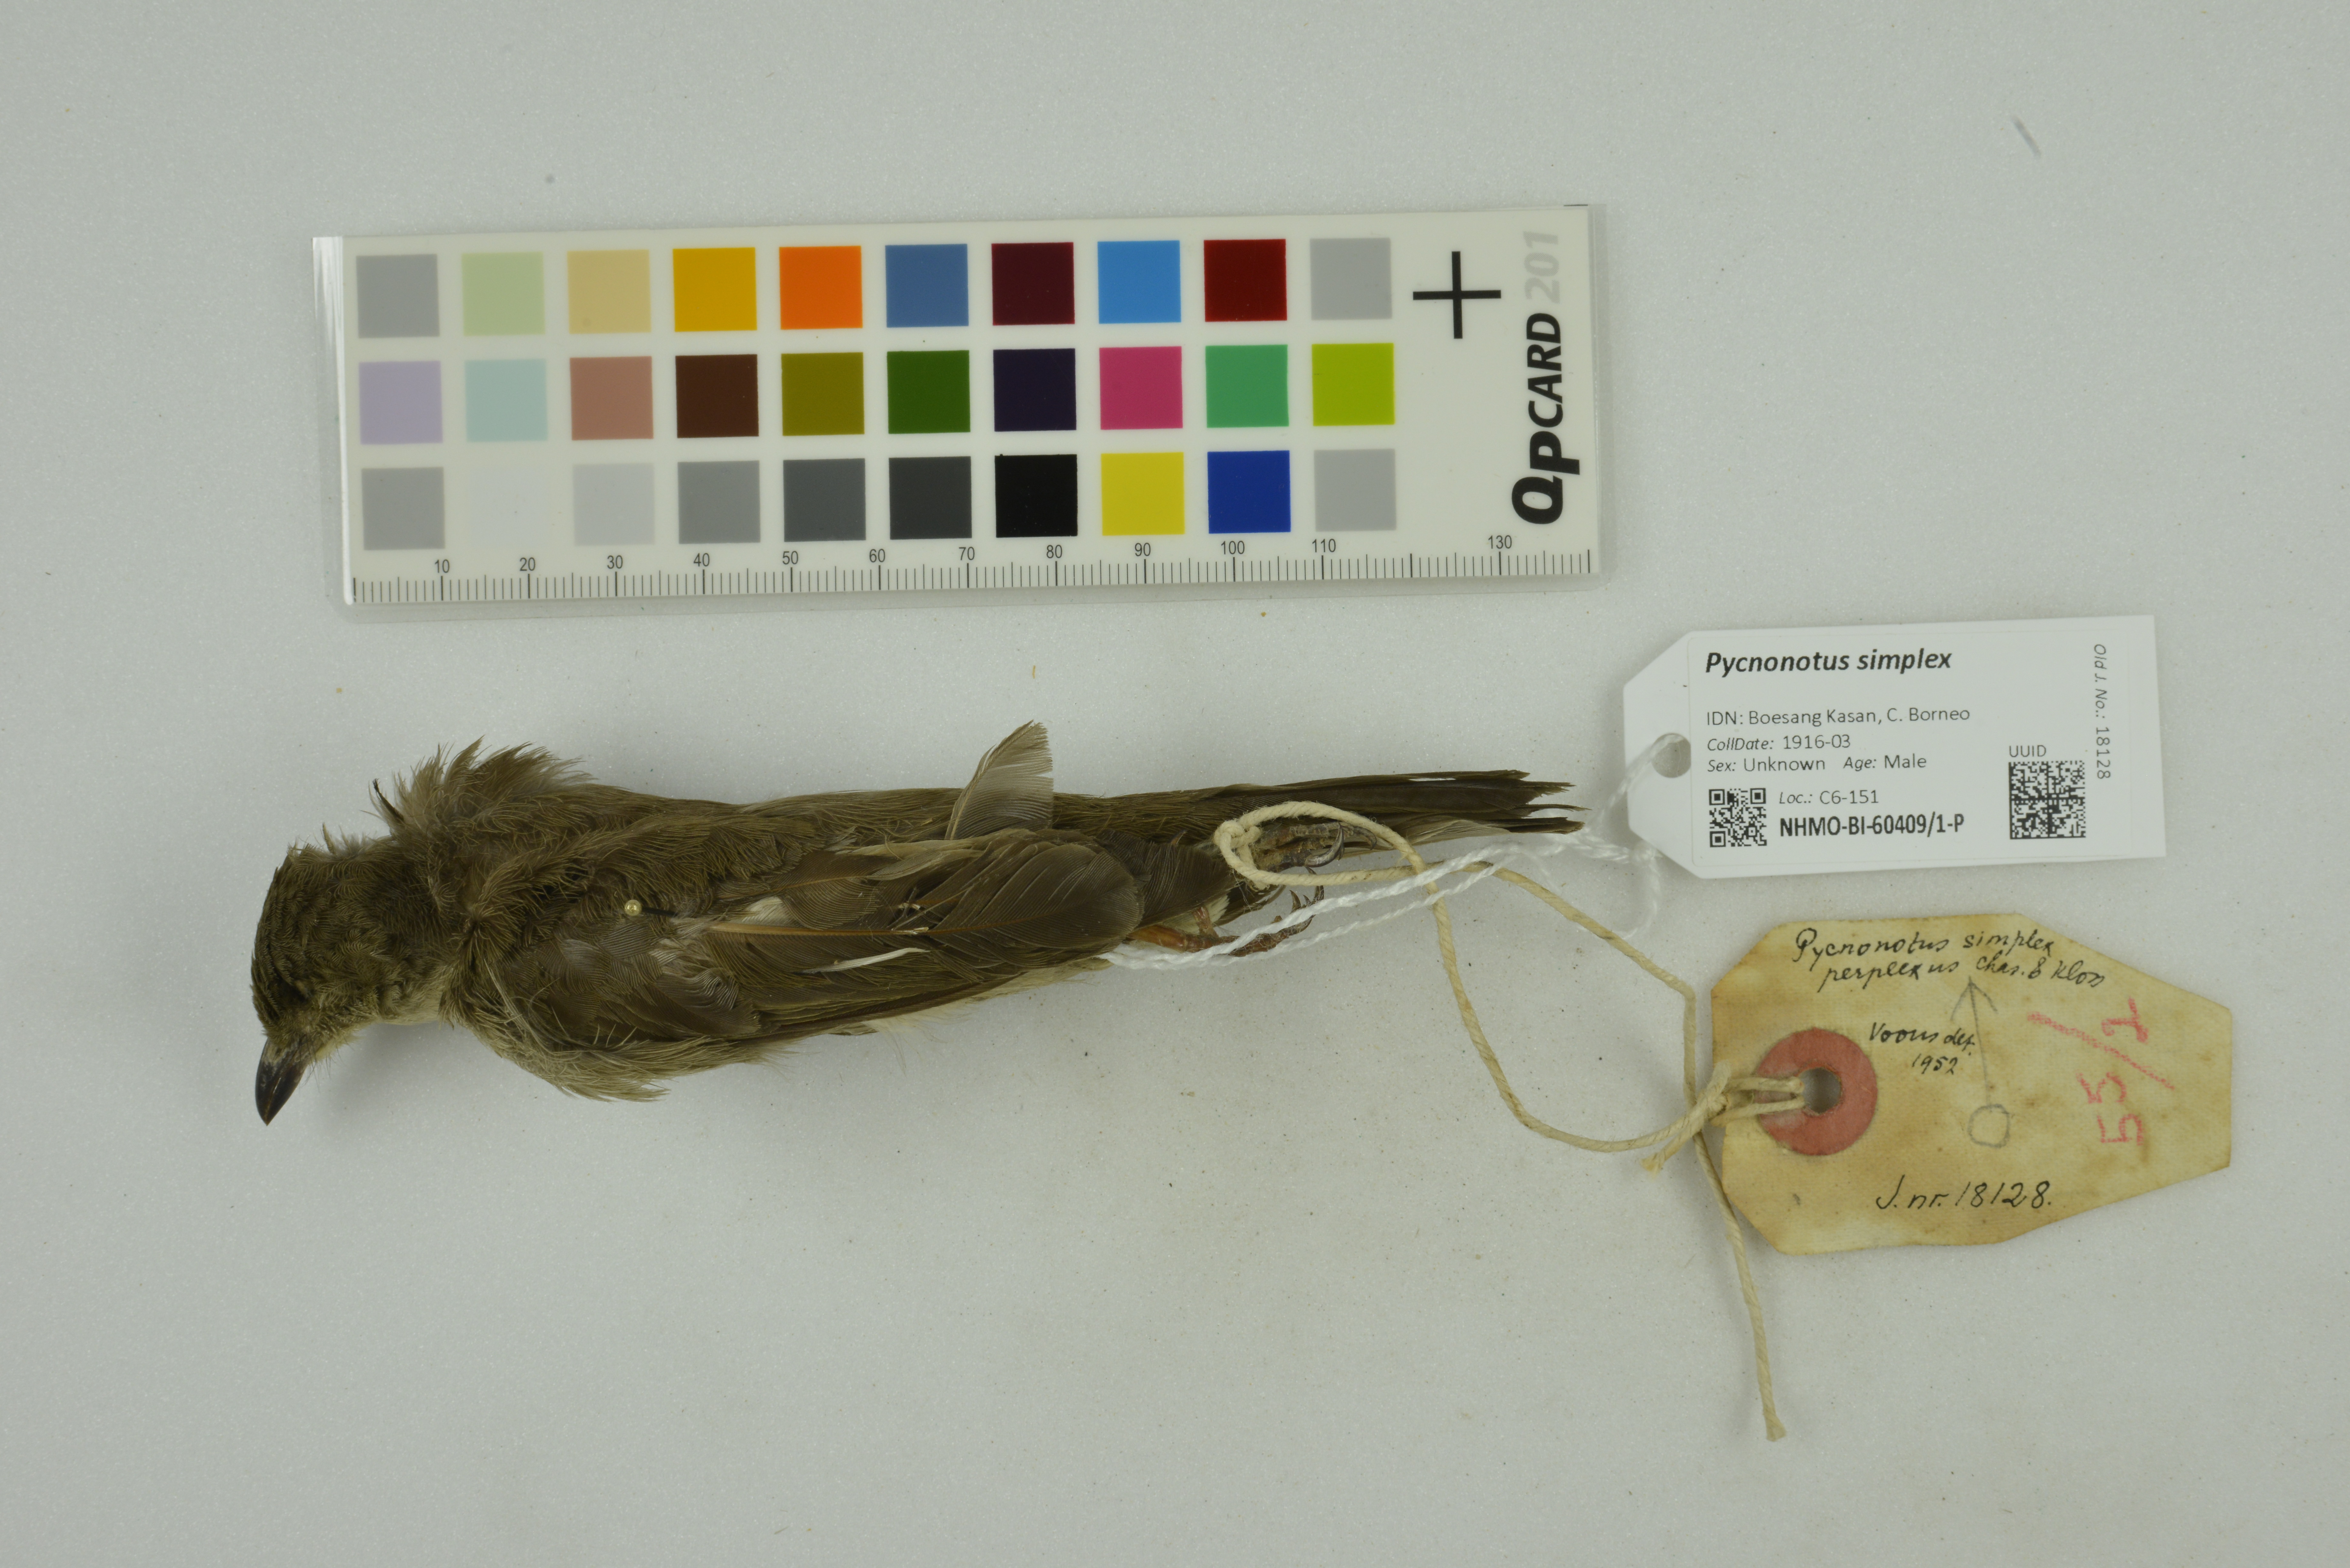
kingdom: Animalia
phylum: Chordata
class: Aves
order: Passeriformes
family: Pycnonotidae
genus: Pycnonotus
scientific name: Pycnonotus simplex
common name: Cream-vented bulbul
